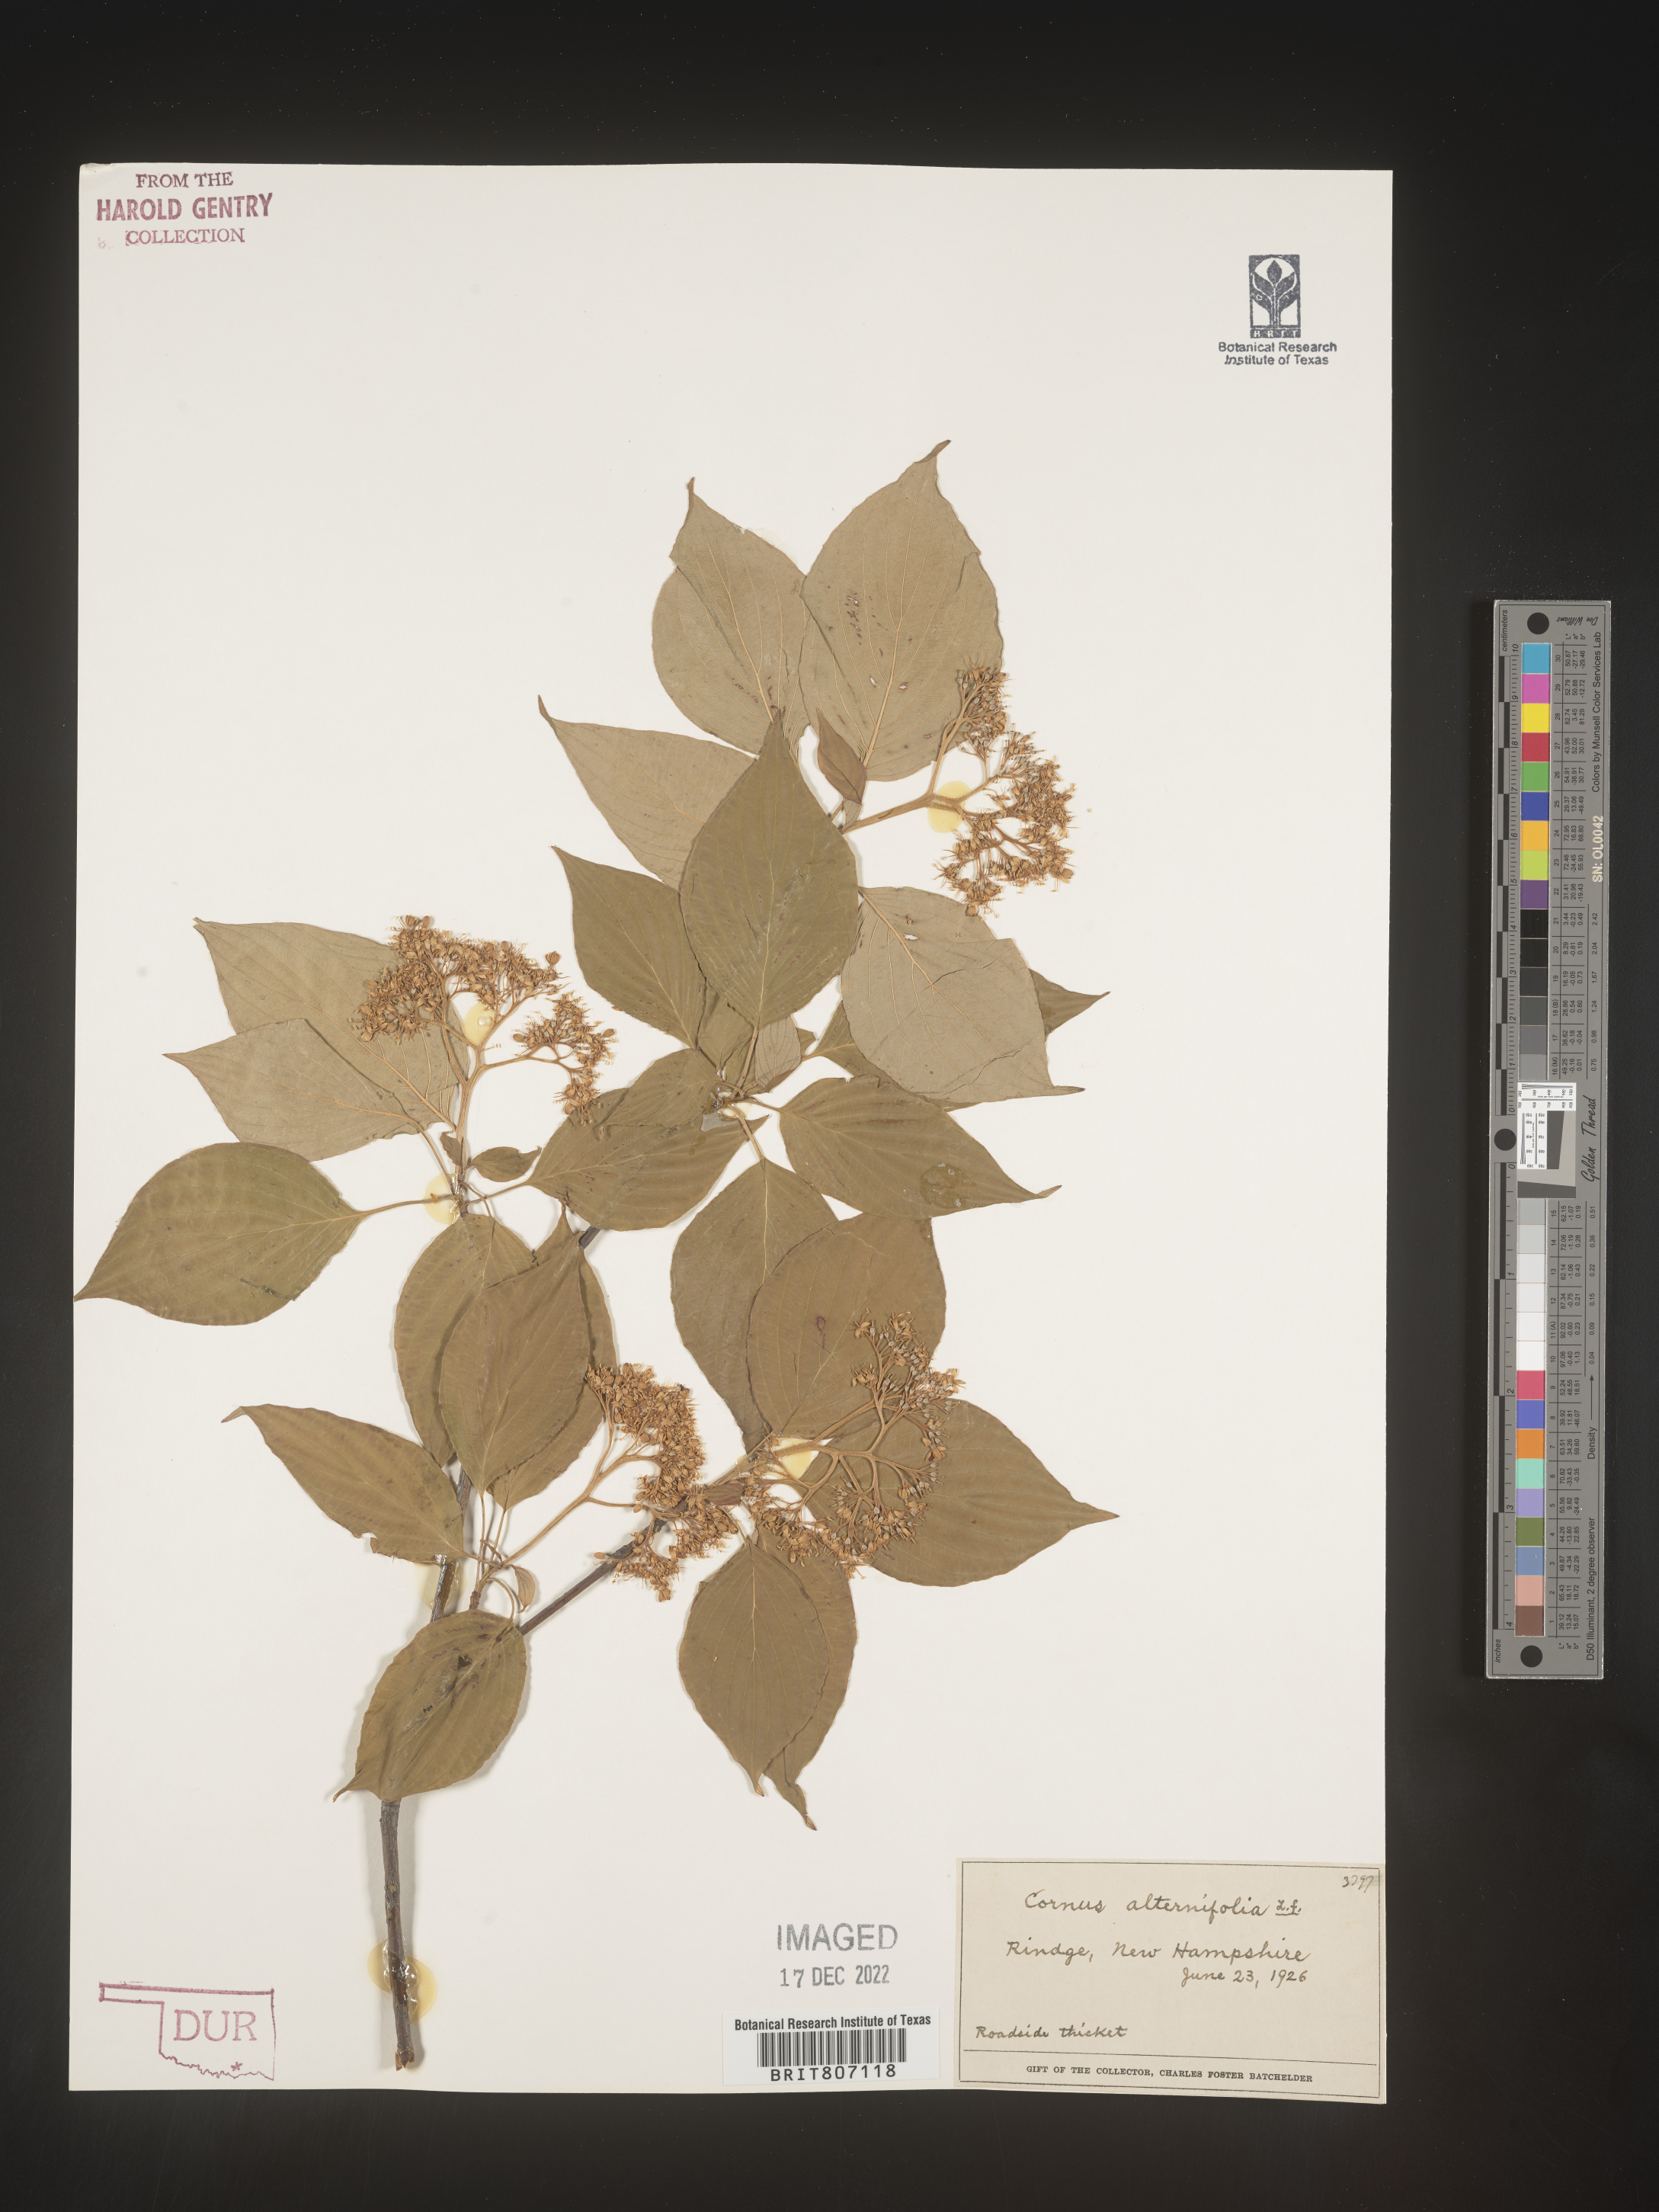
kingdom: Plantae
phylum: Tracheophyta
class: Magnoliopsida
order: Cornales
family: Cornaceae
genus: Cornus
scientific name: Cornus alternifolia
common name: Pagoda dogwood
